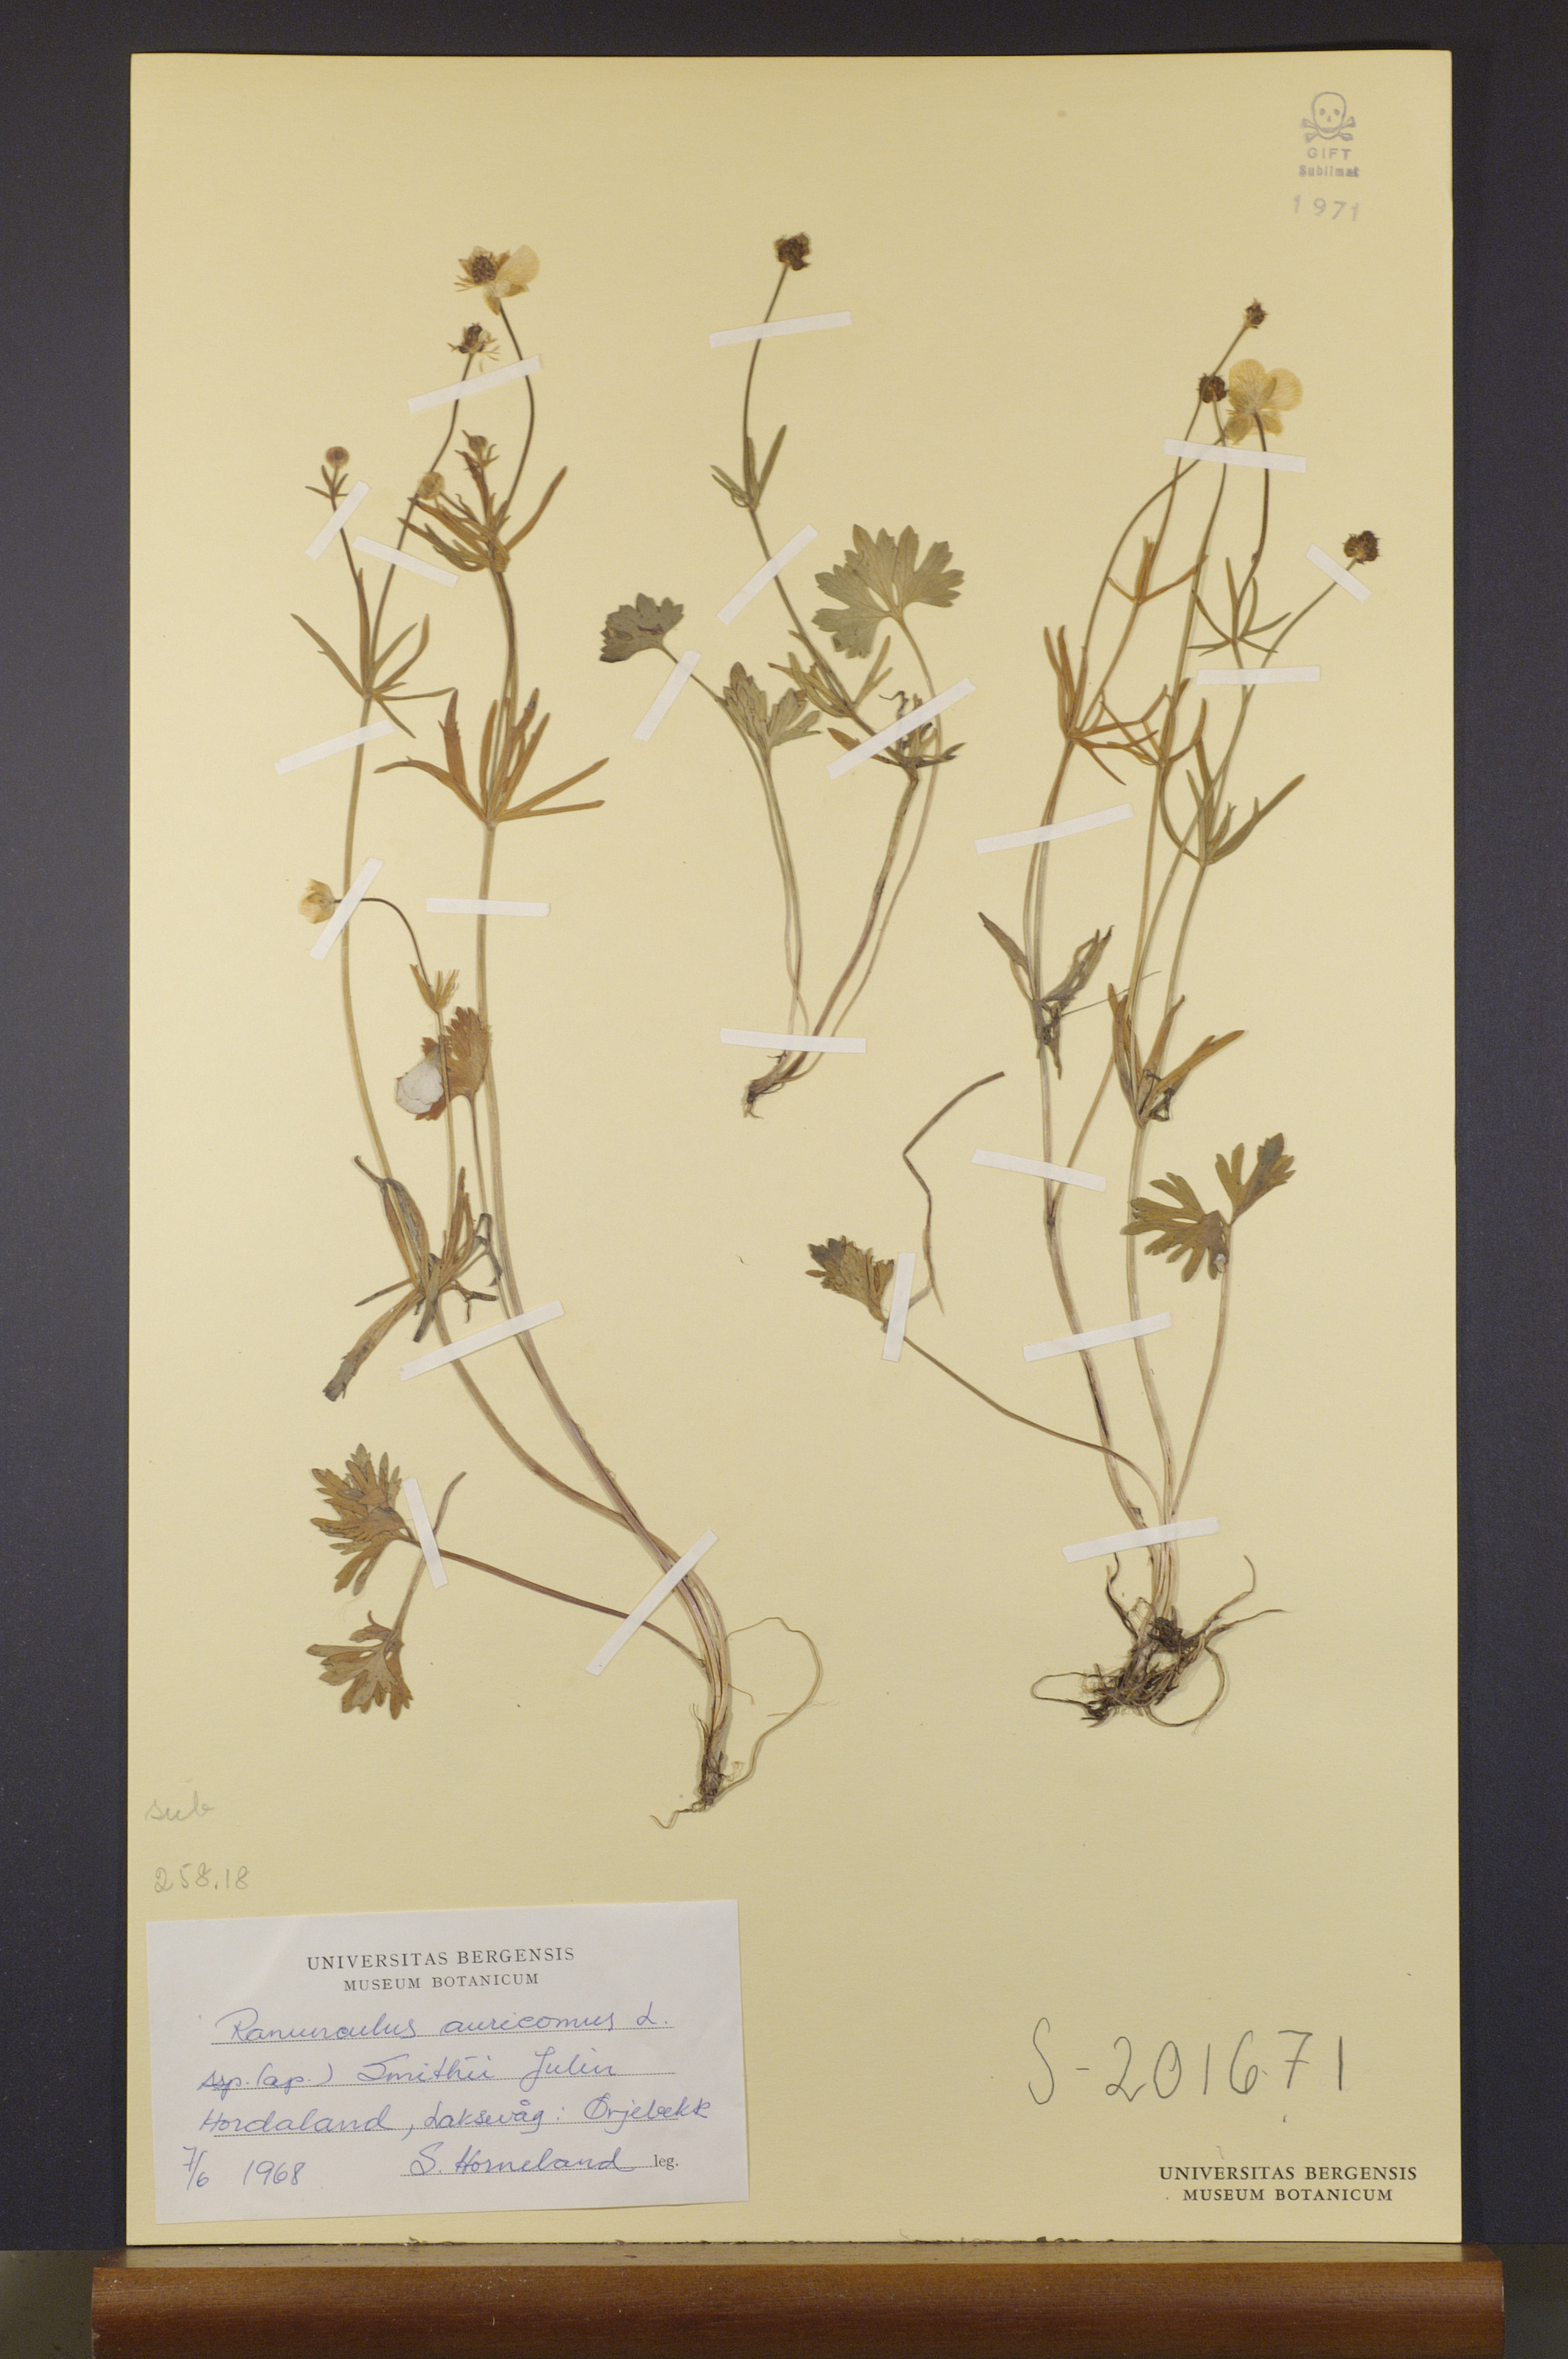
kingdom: Plantae
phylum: Tracheophyta
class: Magnoliopsida
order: Ranunculales
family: Ranunculaceae
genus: Ranunculus
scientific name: Ranunculus pulchridentatus
